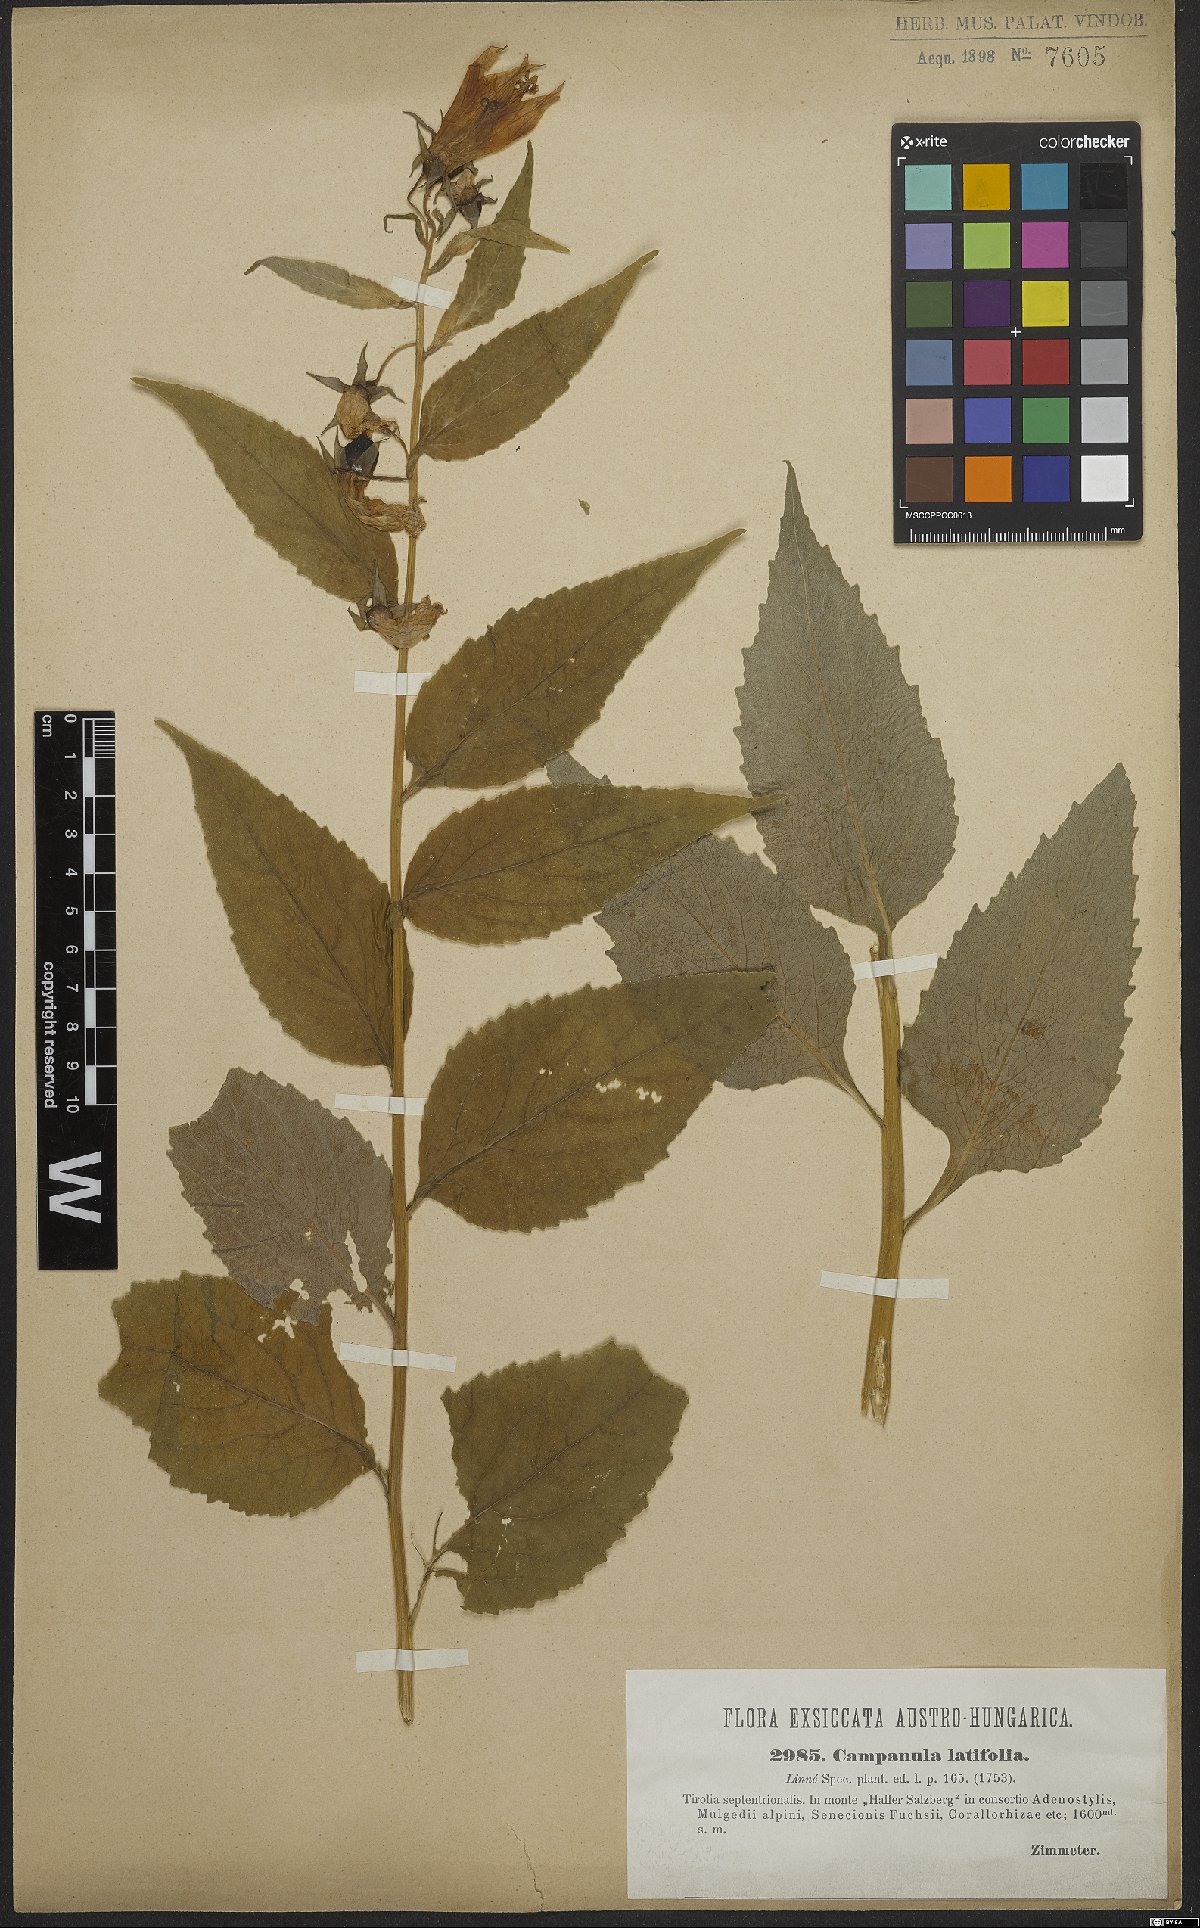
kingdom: Plantae
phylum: Tracheophyta
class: Magnoliopsida
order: Asterales
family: Campanulaceae
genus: Campanula
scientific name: Campanula latifolia
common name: Giant bellflower
